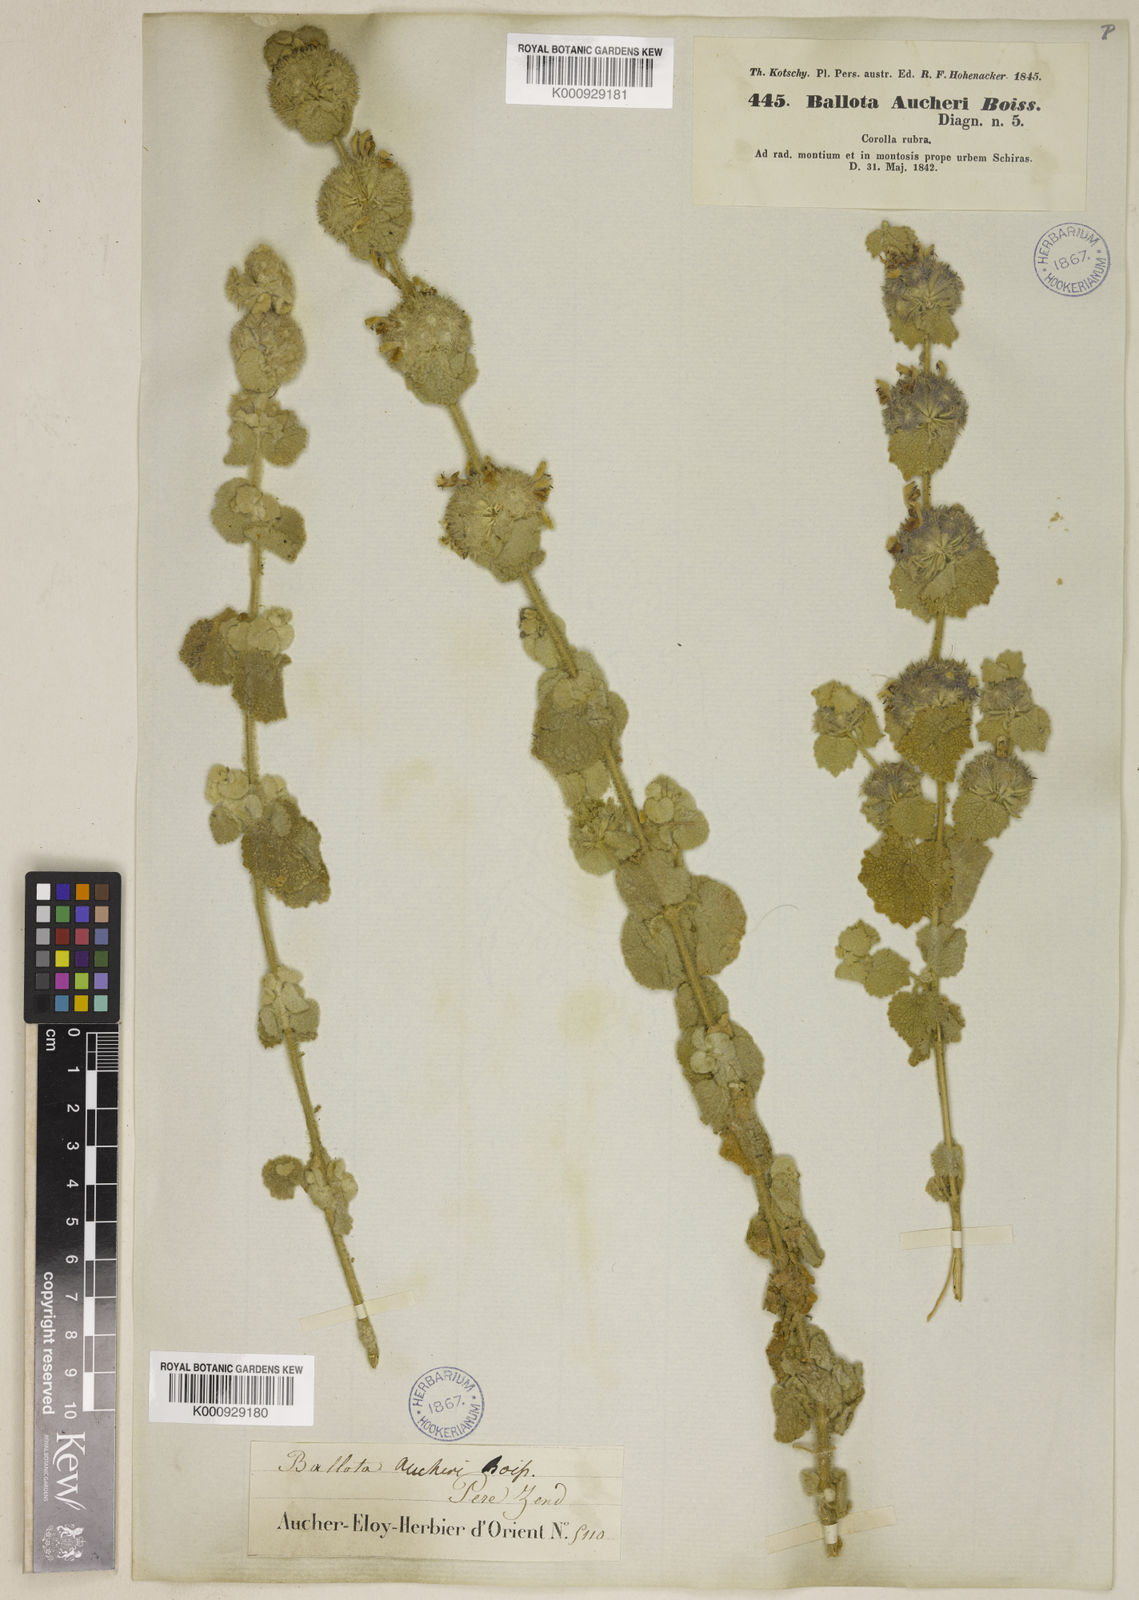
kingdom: Plantae
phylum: Tracheophyta
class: Magnoliopsida
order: Lamiales
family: Lamiaceae
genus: Pseudodictamnus
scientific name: Pseudodictamnus aucheri
